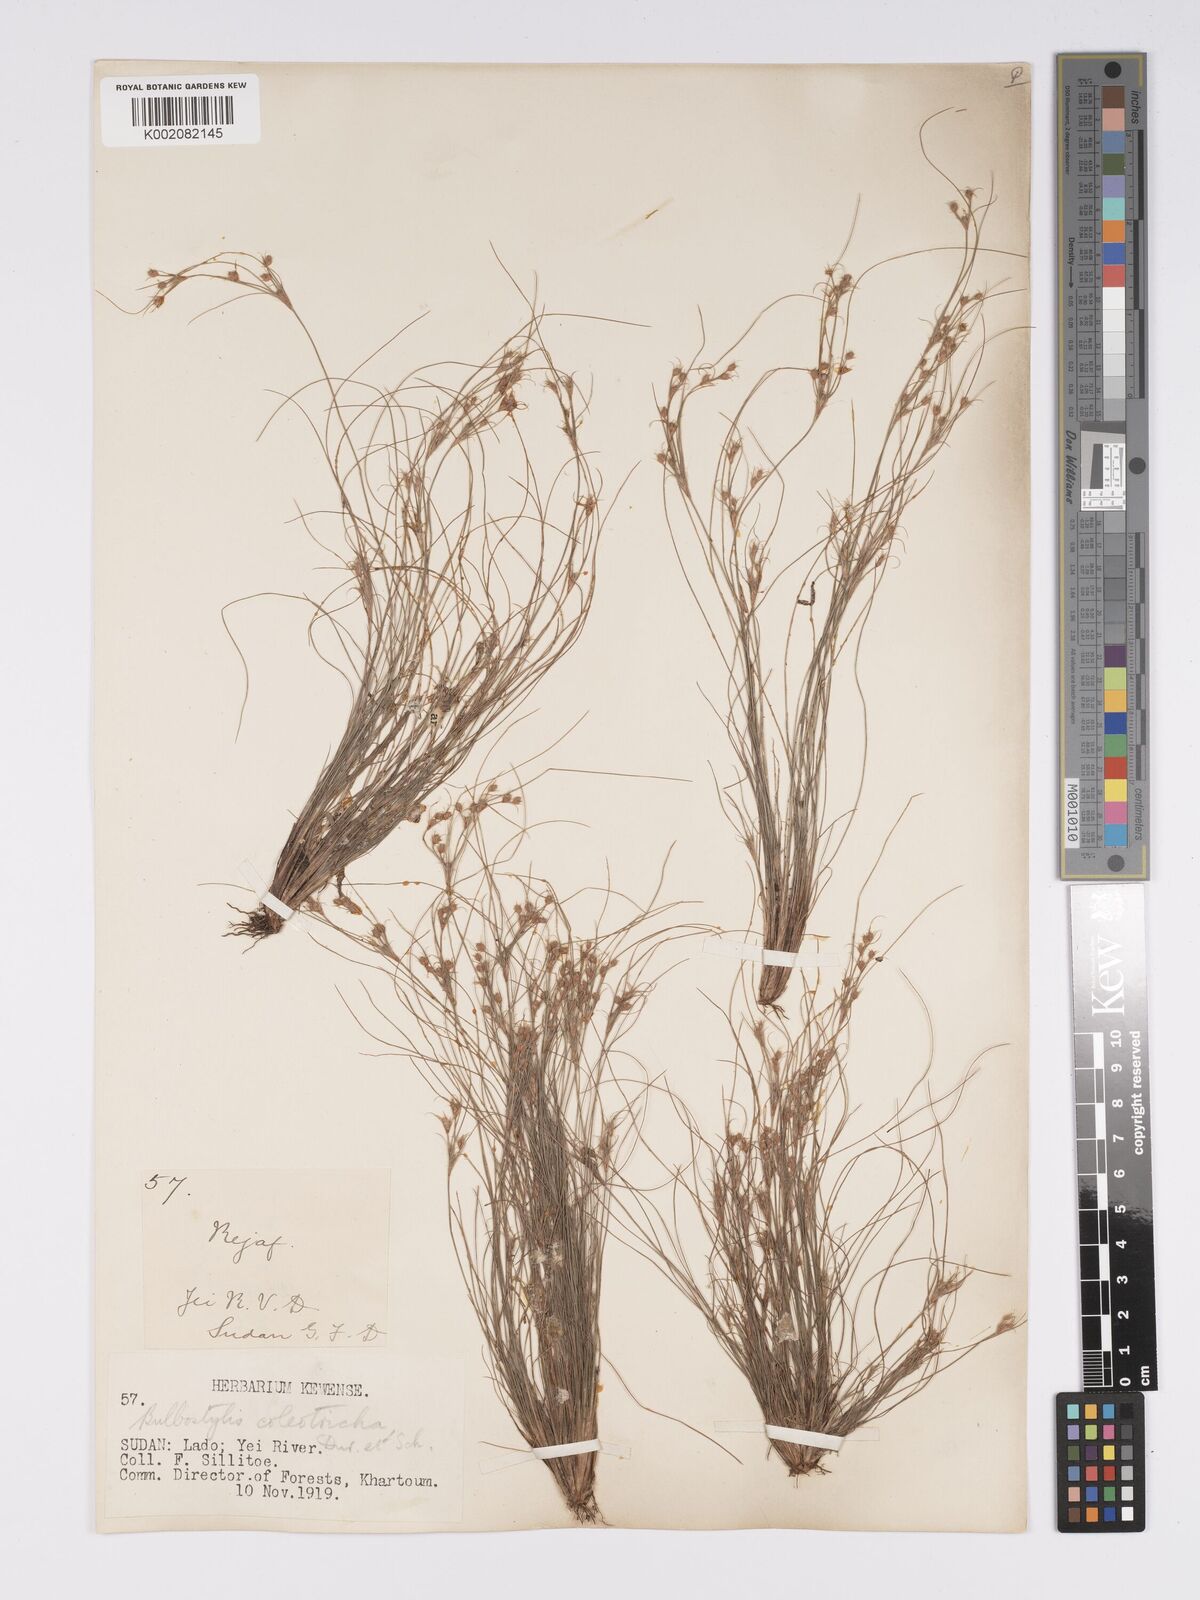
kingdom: Plantae
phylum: Tracheophyta
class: Liliopsida
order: Poales
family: Cyperaceae
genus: Bulbostylis
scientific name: Bulbostylis coleotricha
